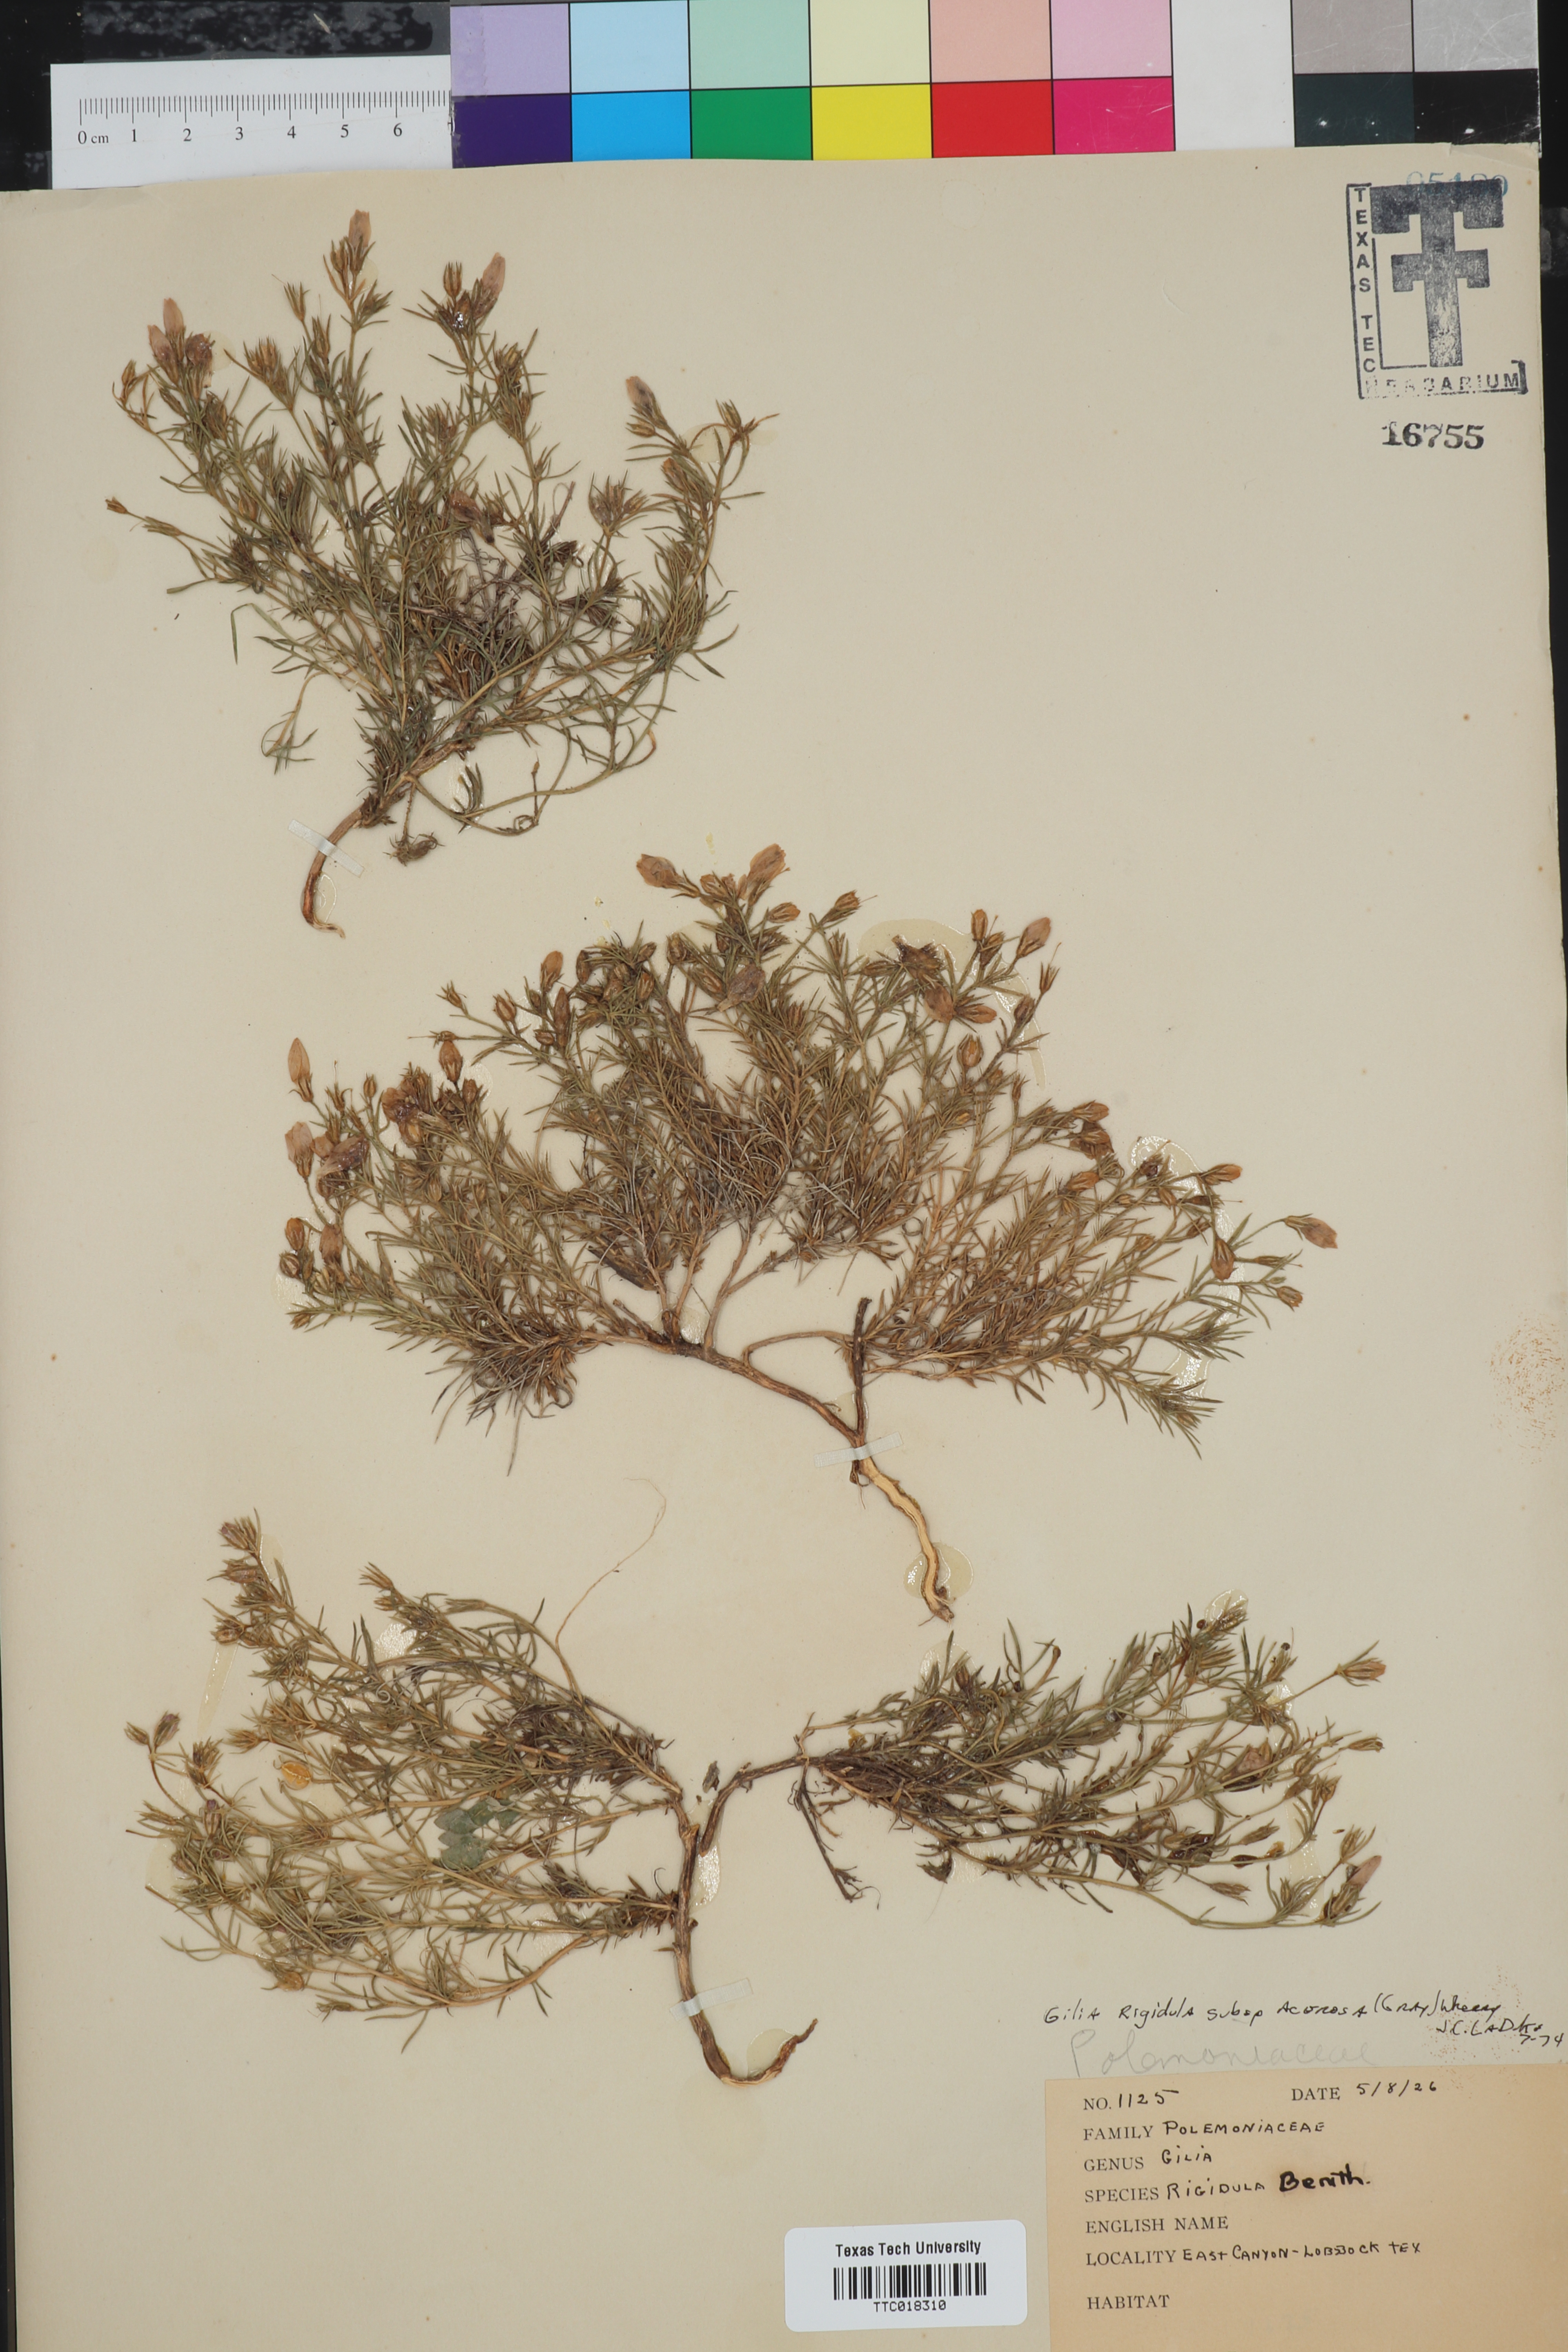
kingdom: Plantae
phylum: Tracheophyta
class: Magnoliopsida
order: Ericales
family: Polemoniaceae
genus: Giliastrum
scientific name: Giliastrum acerosum
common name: Bluebowls
